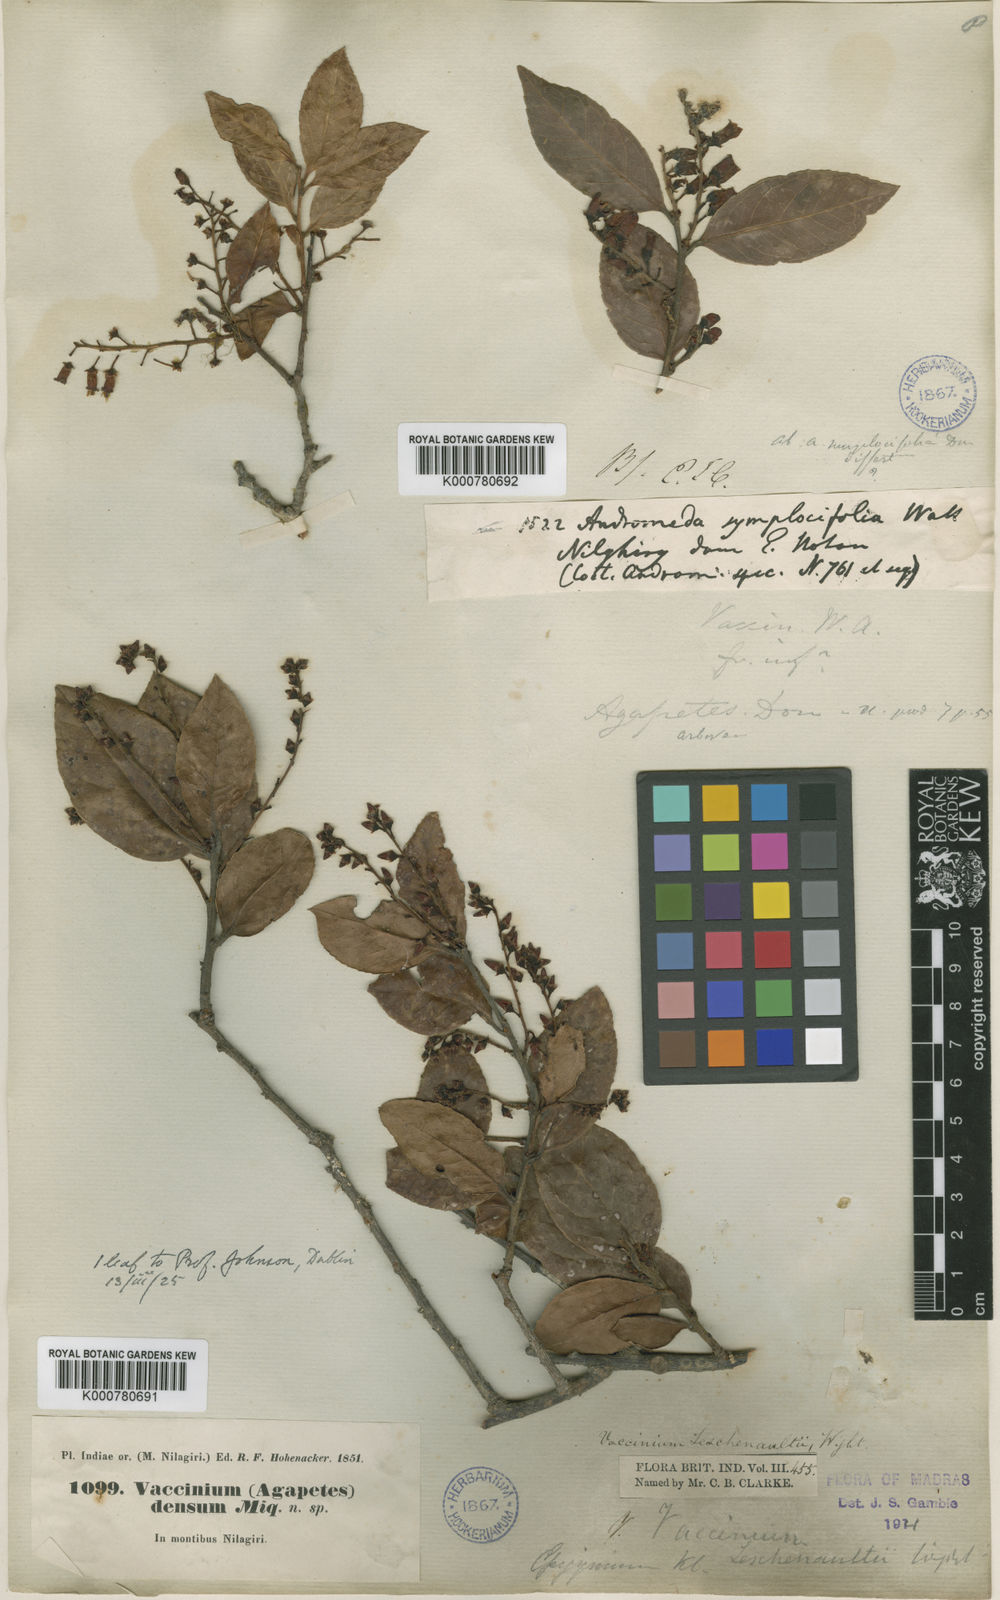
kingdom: Plantae
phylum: Tracheophyta
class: Magnoliopsida
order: Ericales
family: Ericaceae
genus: Vaccinium
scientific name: Vaccinium symplocifolium
